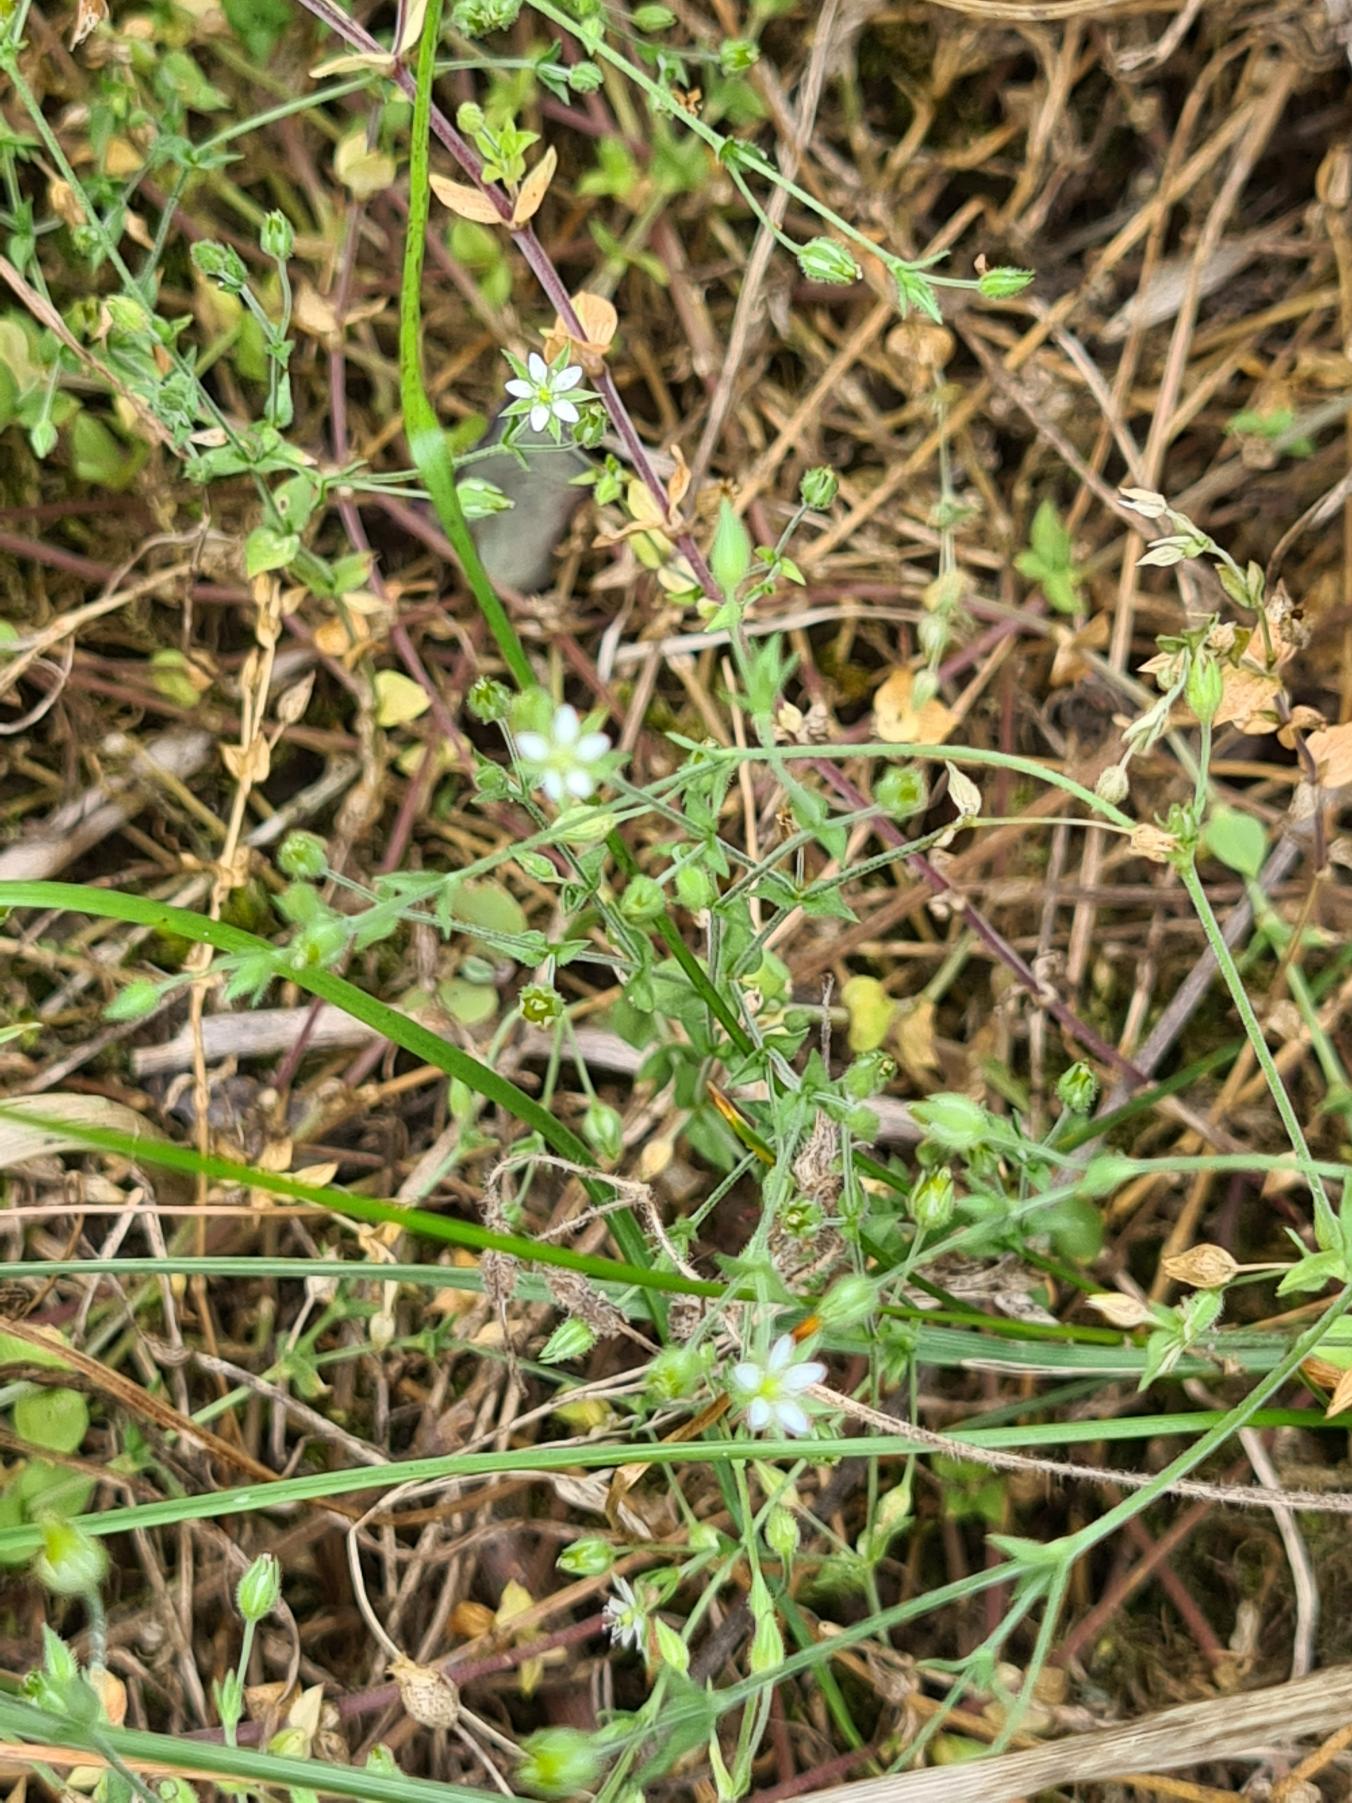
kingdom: Plantae
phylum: Tracheophyta
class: Magnoliopsida
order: Caryophyllales
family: Caryophyllaceae
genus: Arenaria
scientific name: Arenaria serpyllifolia
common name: Almindelig markarve
